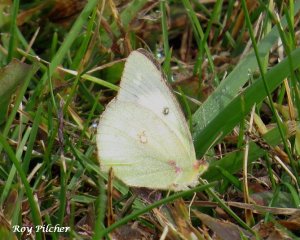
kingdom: Animalia
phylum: Arthropoda
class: Insecta
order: Lepidoptera
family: Pieridae
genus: Colias
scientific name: Colias philodice
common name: Clouded Sulphur
